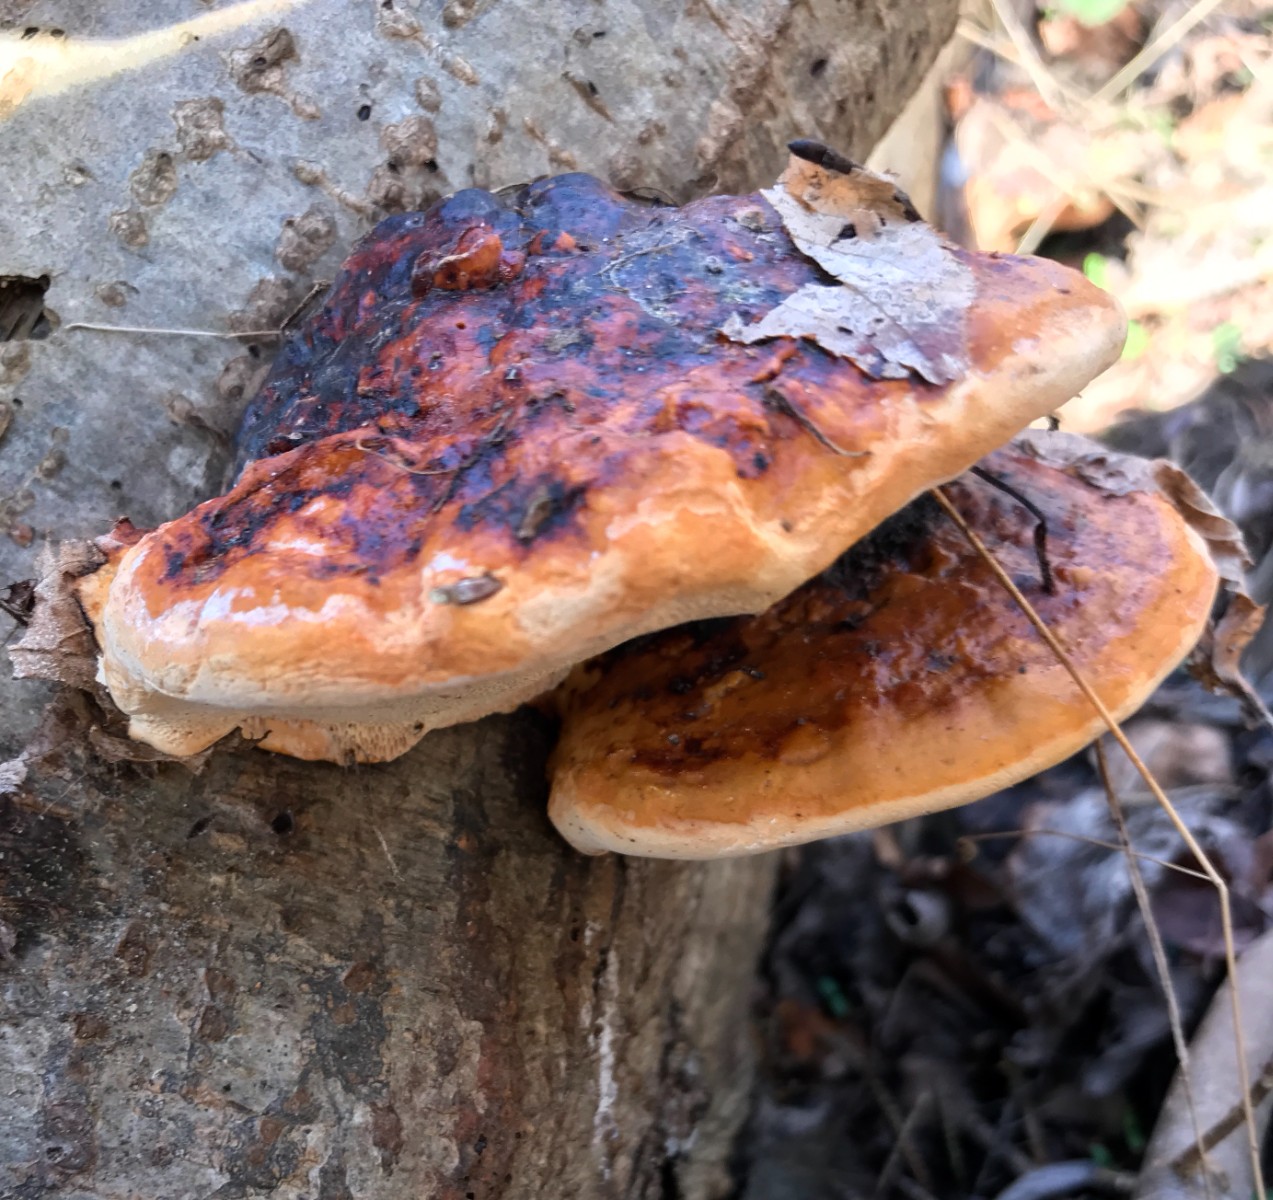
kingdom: Fungi
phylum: Basidiomycota
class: Agaricomycetes
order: Polyporales
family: Fomitopsidaceae
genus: Fomitopsis
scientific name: Fomitopsis pinicola
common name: randbæltet hovporesvamp
